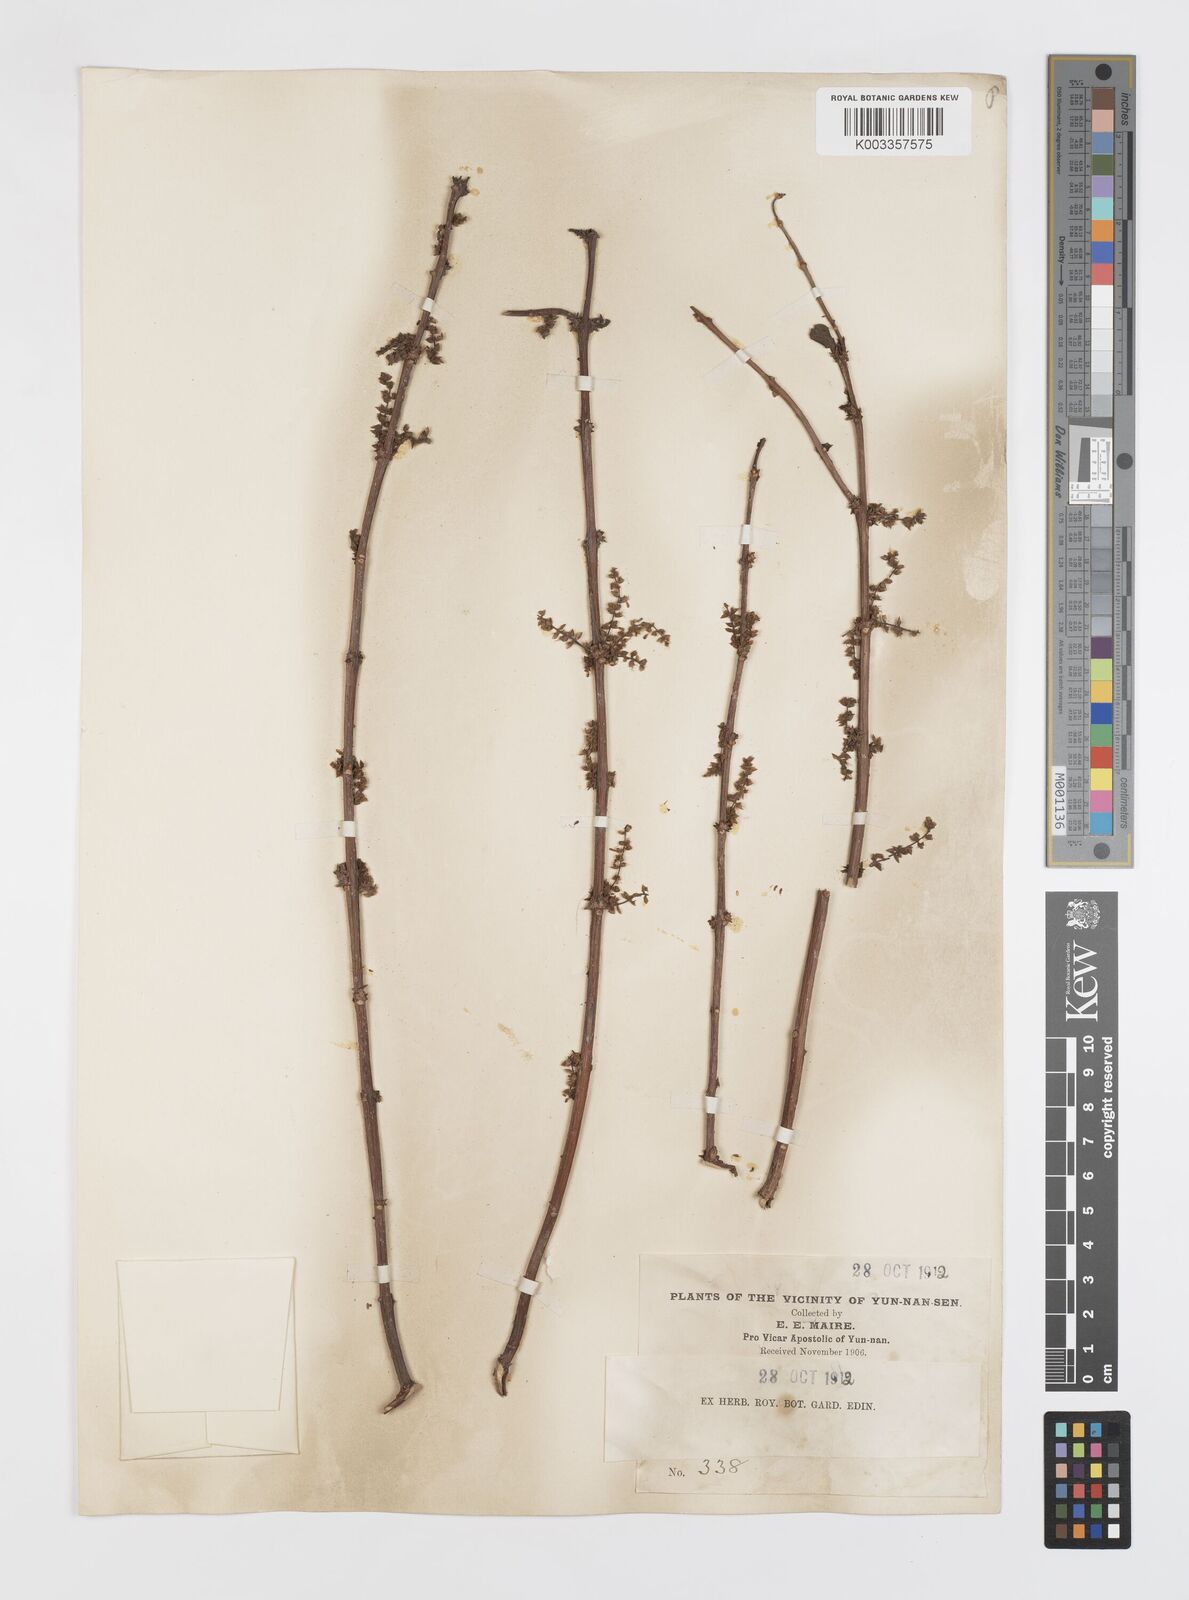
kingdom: Plantae
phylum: Tracheophyta
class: Magnoliopsida
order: Cucurbitales
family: Coriariaceae
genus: Coriaria
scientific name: Coriaria
